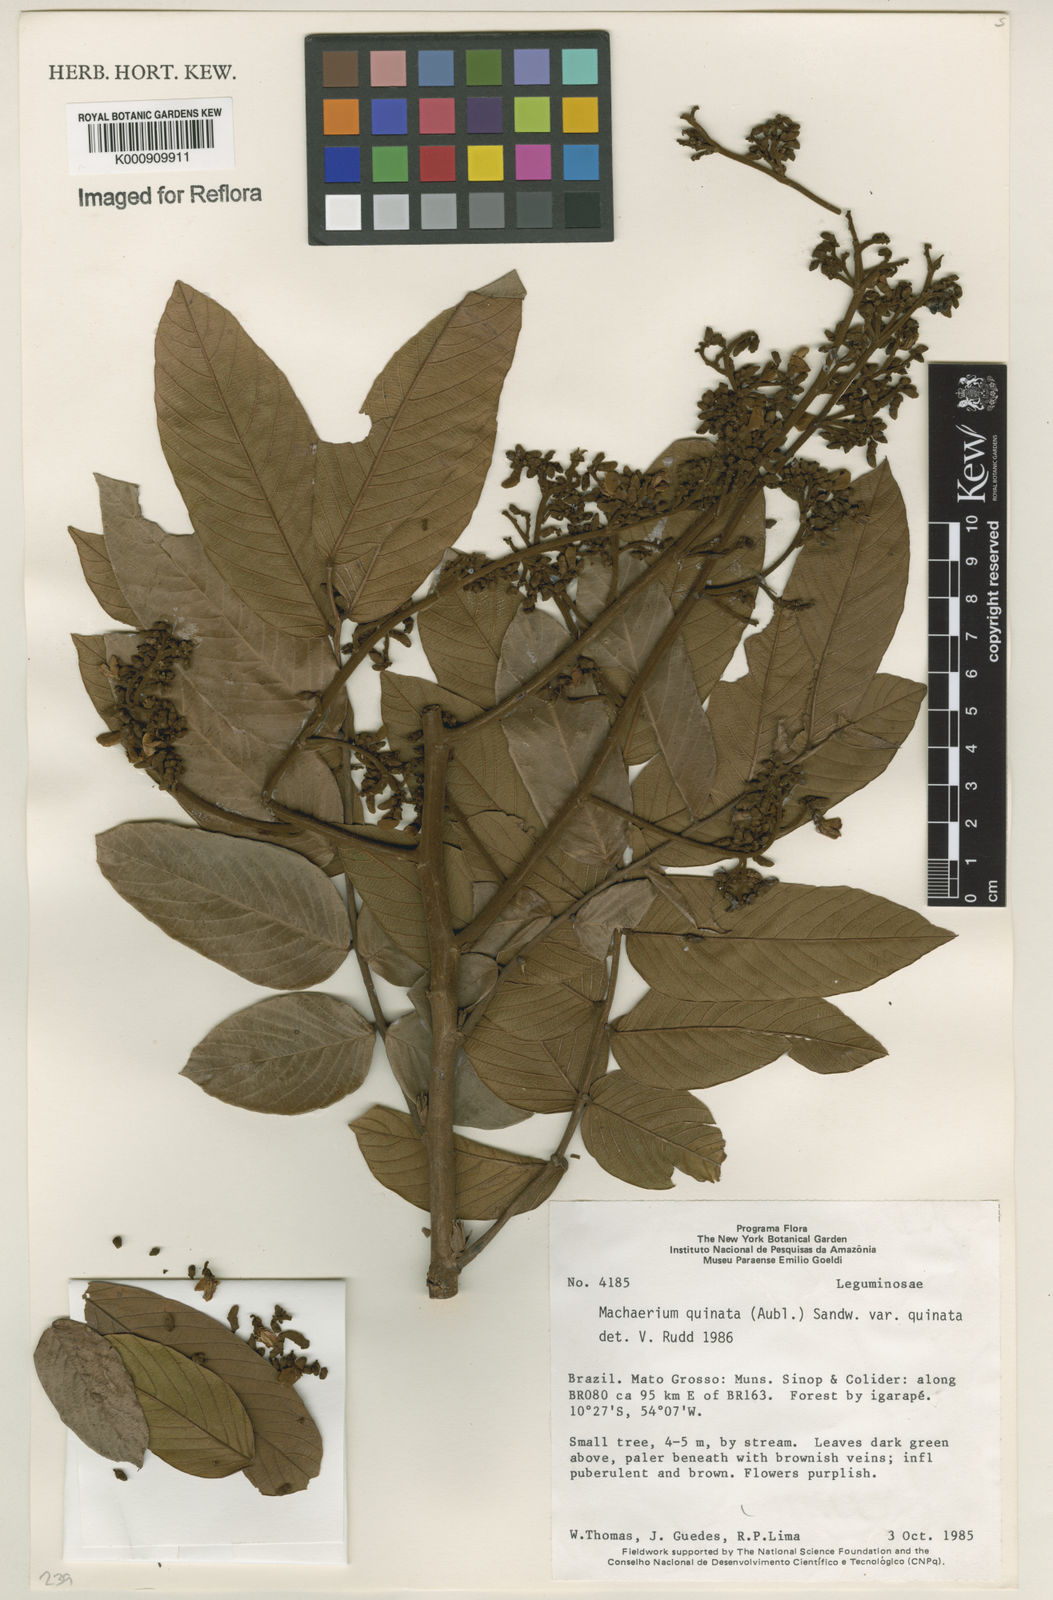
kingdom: Plantae
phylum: Tracheophyta
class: Magnoliopsida
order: Fabales
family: Fabaceae
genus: Machaerium
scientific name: Machaerium quinata
